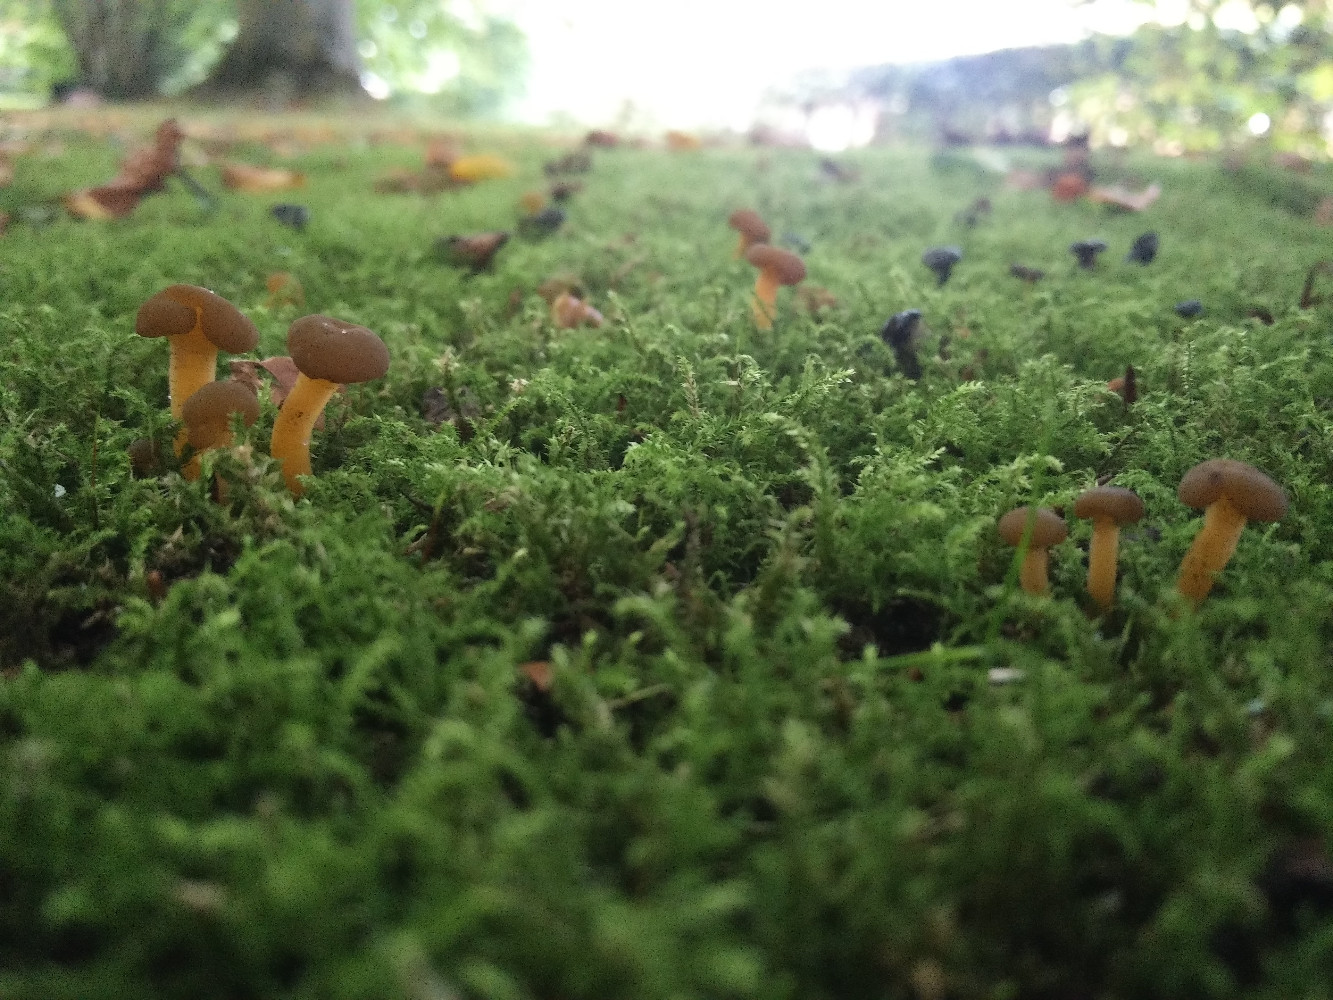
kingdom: Fungi
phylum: Ascomycota
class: Leotiomycetes
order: Leotiales
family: Leotiaceae
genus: Leotia
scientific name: Leotia lubrica
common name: ravsvamp
